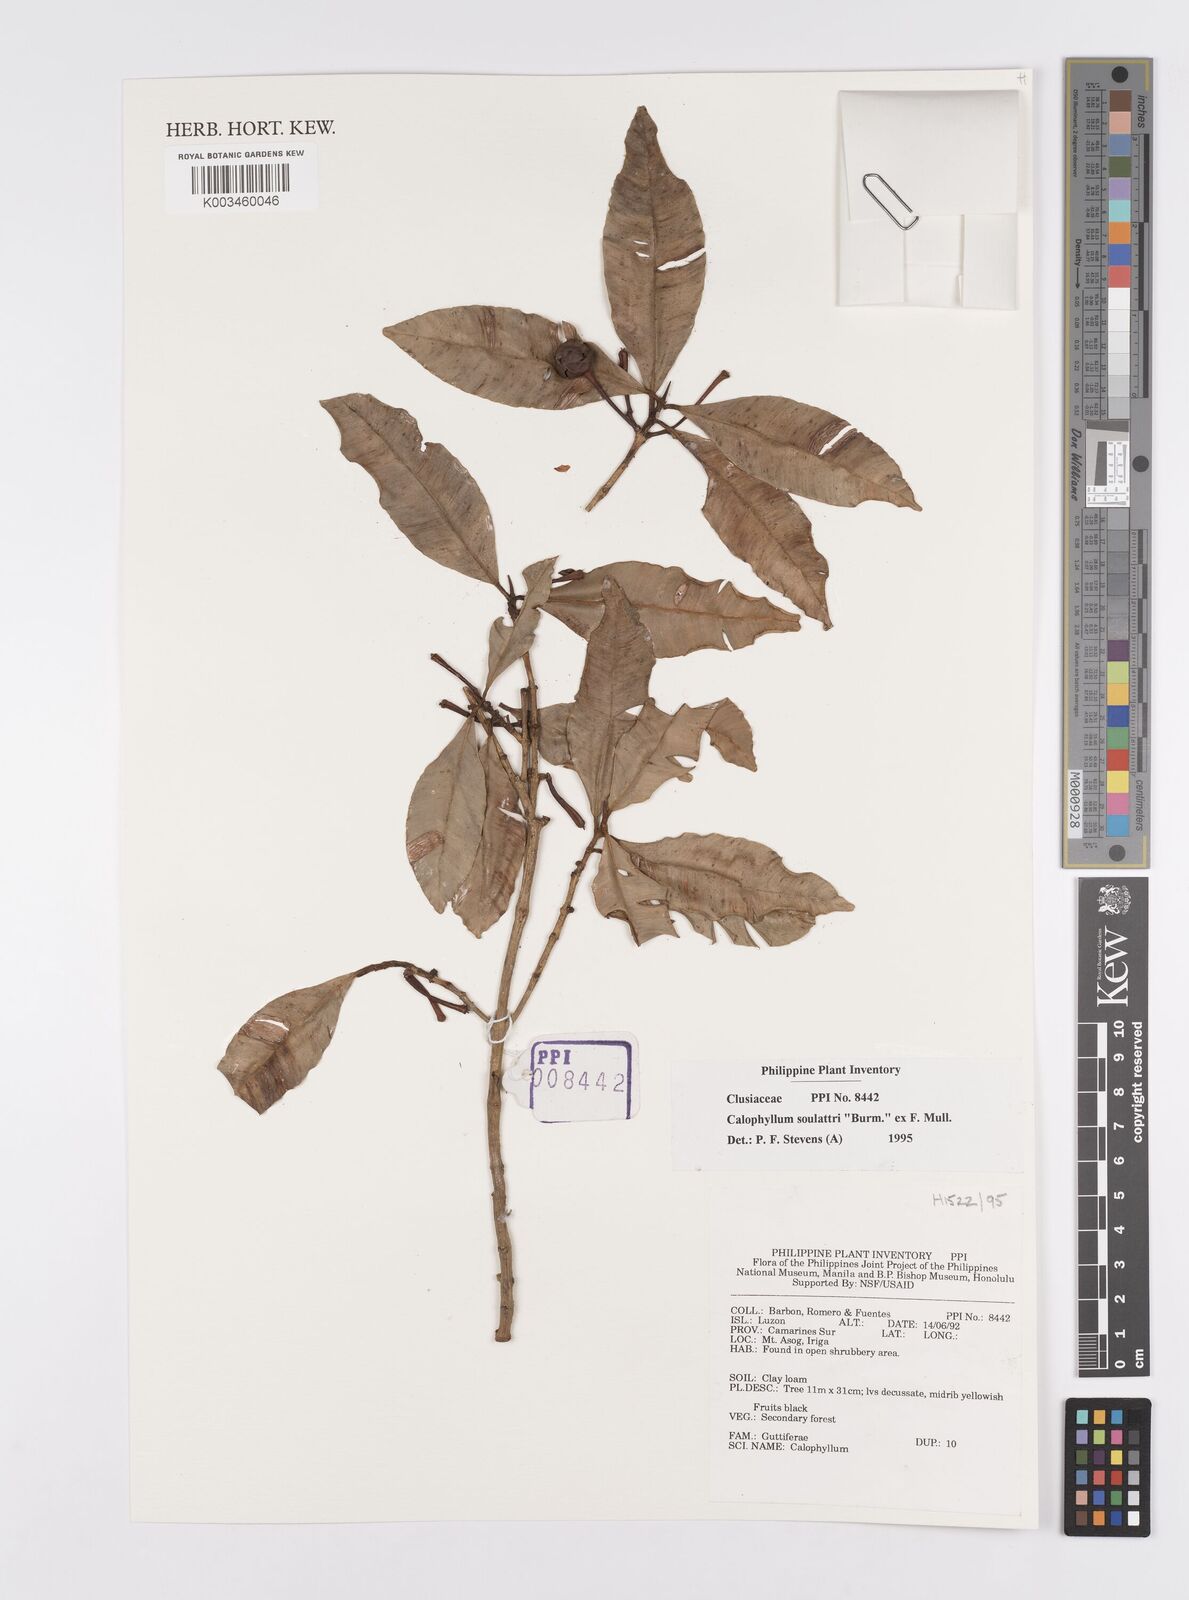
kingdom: Plantae
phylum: Tracheophyta
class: Magnoliopsida
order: Malpighiales
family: Calophyllaceae
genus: Calophyllum
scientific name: Calophyllum soulattri
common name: Bitangoor boonot
